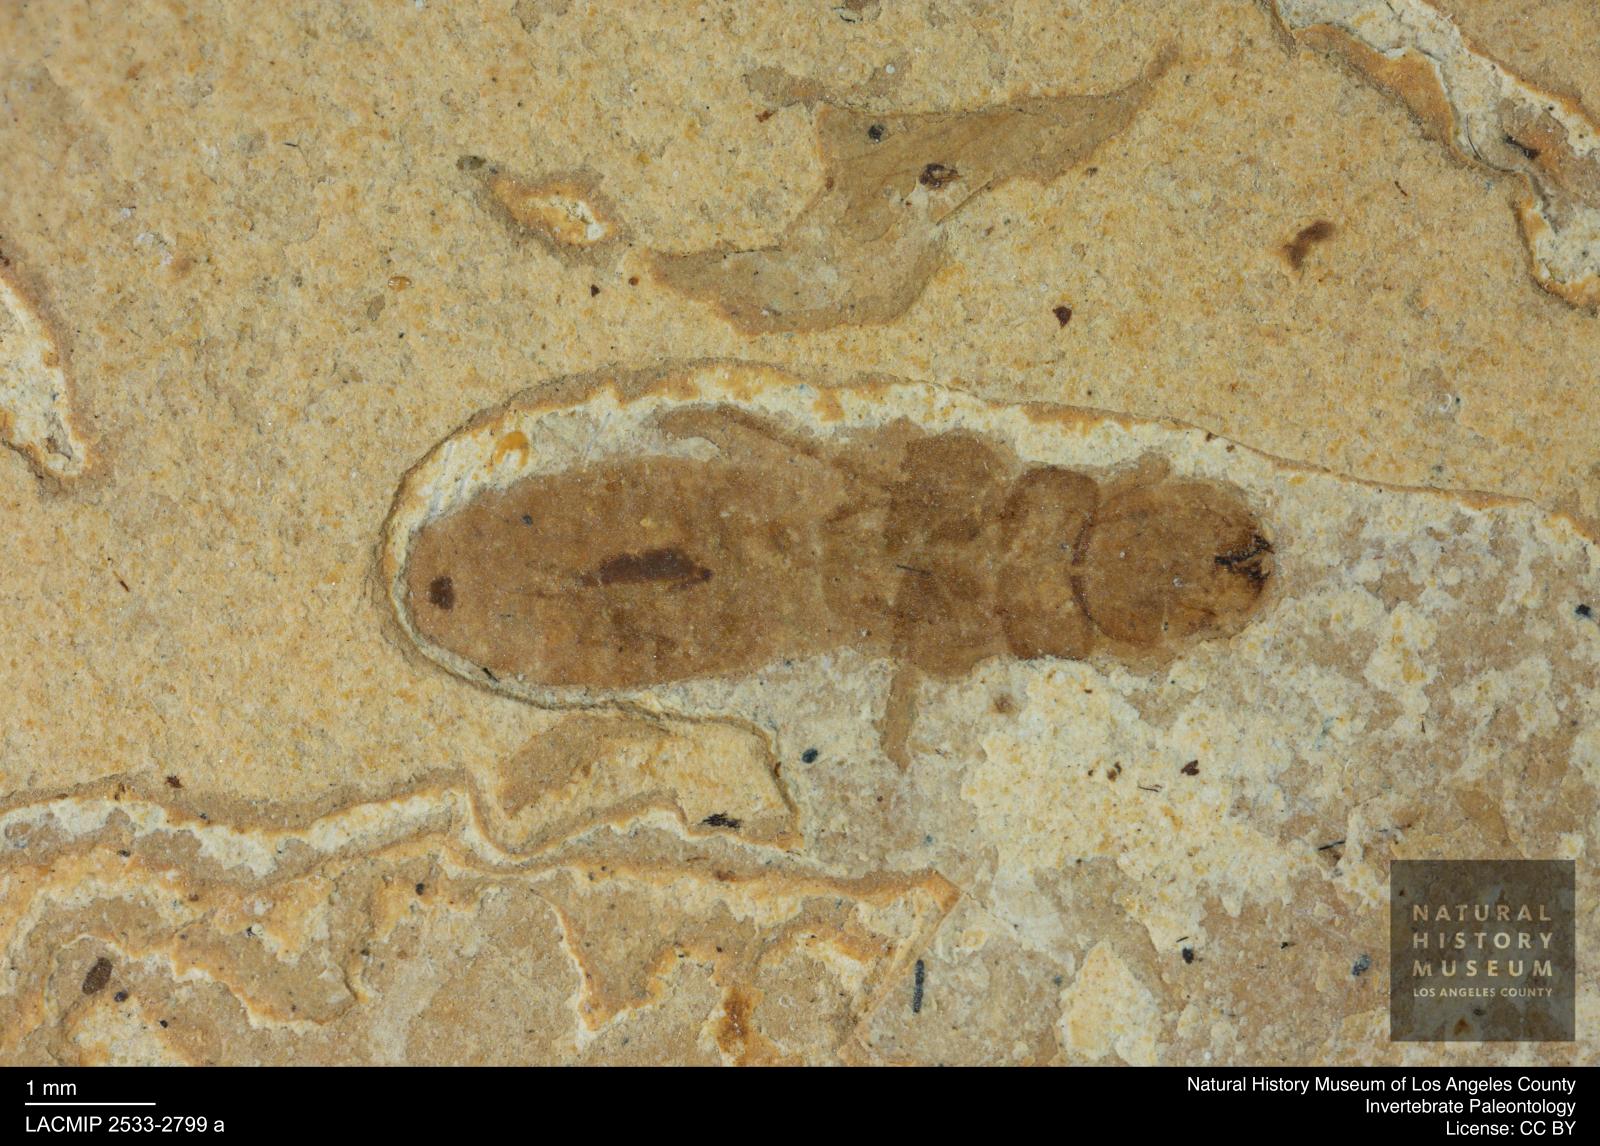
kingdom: Animalia
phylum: Arthropoda
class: Insecta
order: Blattodea
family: Kalotermitidae
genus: Kalotermes
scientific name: Kalotermes rhenanus
